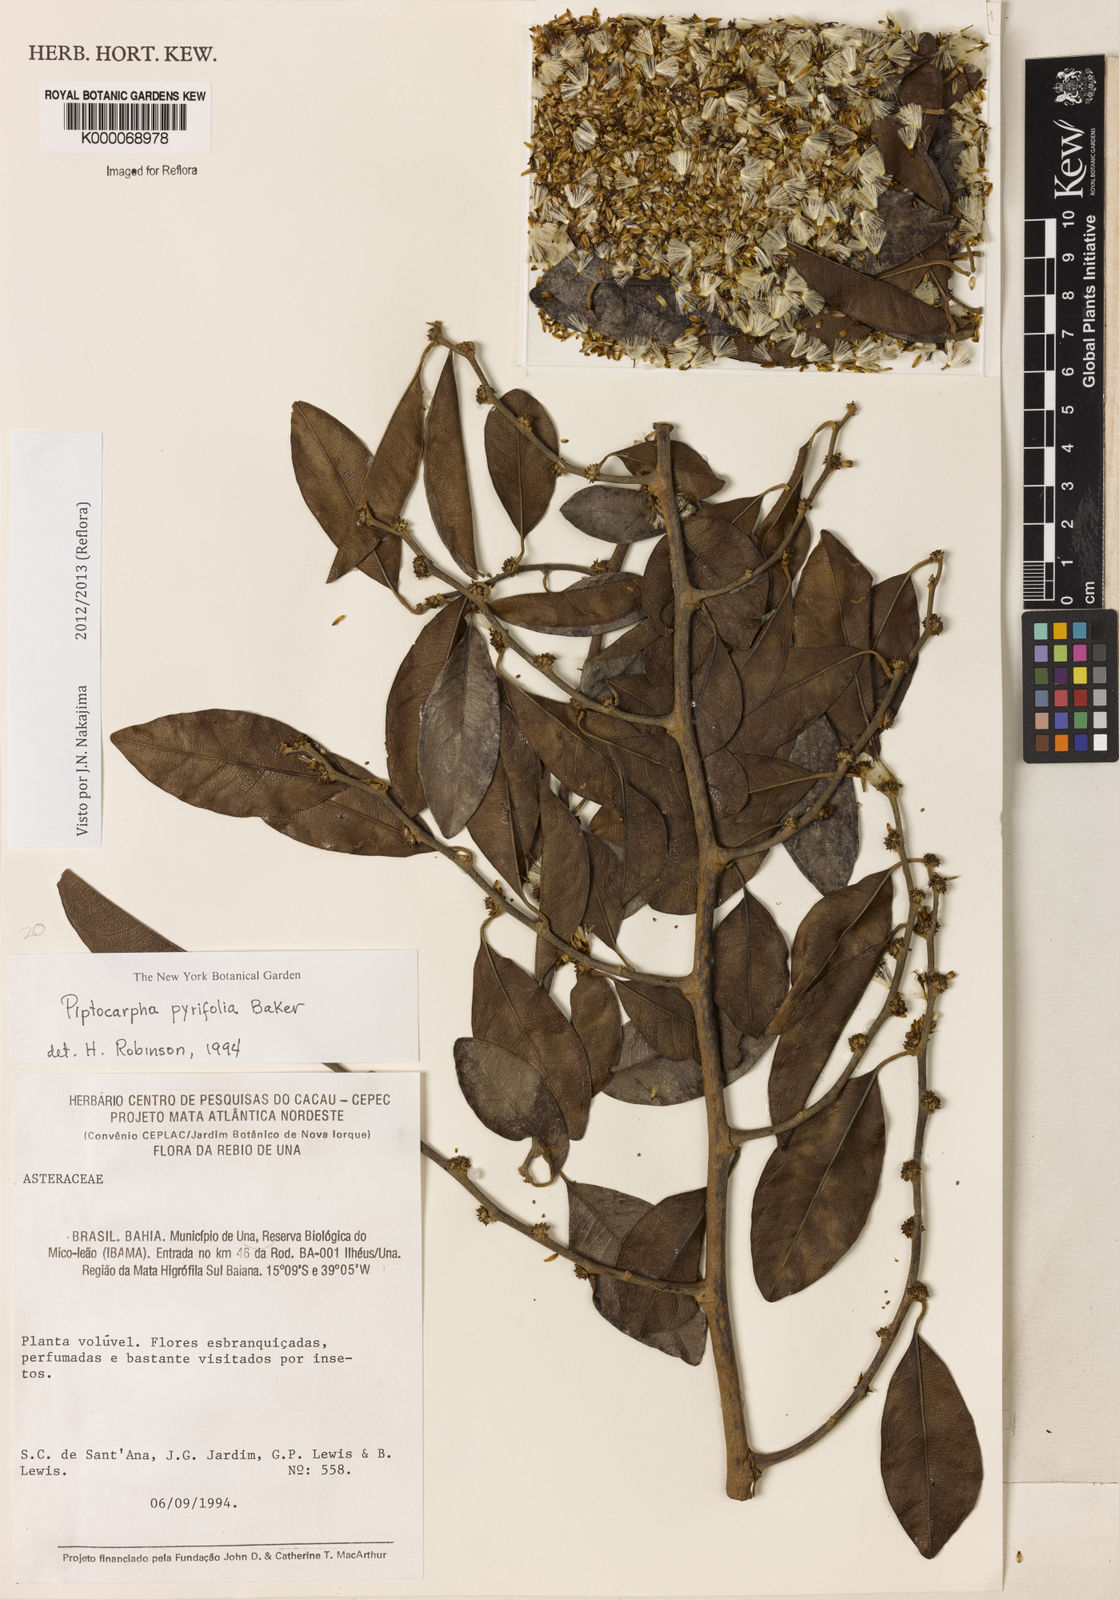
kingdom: Plantae
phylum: Tracheophyta
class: Magnoliopsida
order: Asterales
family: Asteraceae
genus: Piptocarpha
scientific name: Piptocarpha pyrifolia
